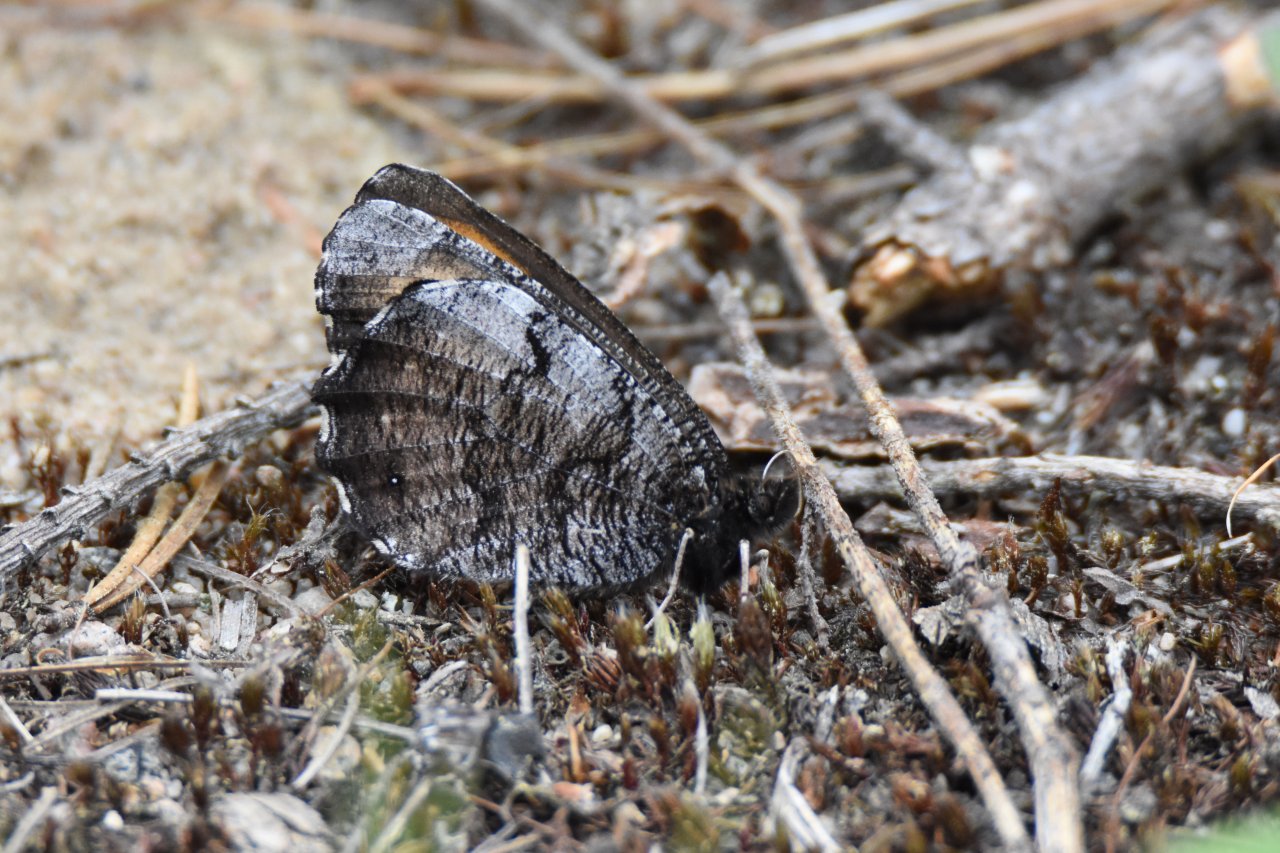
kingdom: Animalia
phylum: Arthropoda
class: Insecta
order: Lepidoptera
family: Nymphalidae
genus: Oeneis
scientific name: Oeneis macounii
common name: Macoun's Arctic
